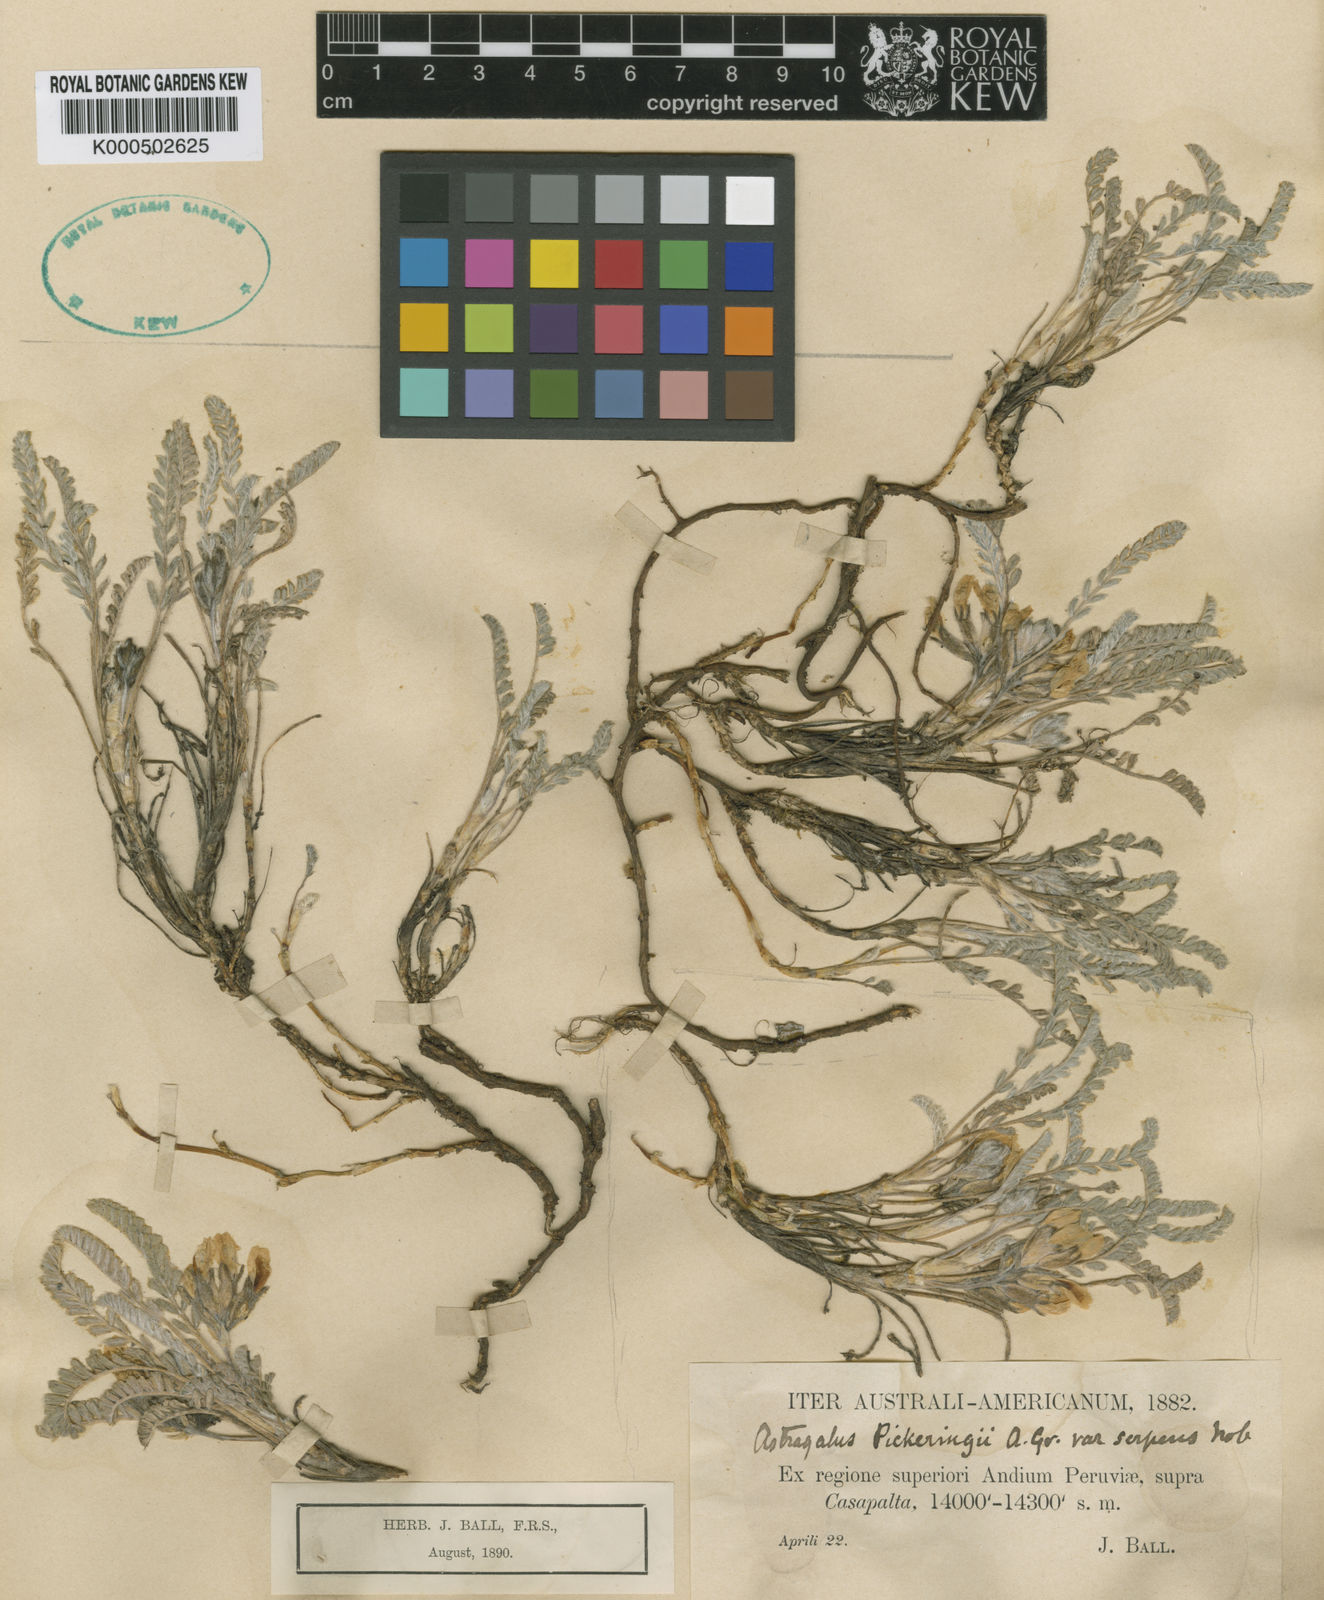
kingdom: Plantae
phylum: Tracheophyta
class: Magnoliopsida
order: Fabales
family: Fabaceae
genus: Astragalus
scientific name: Astragalus pickeringii
